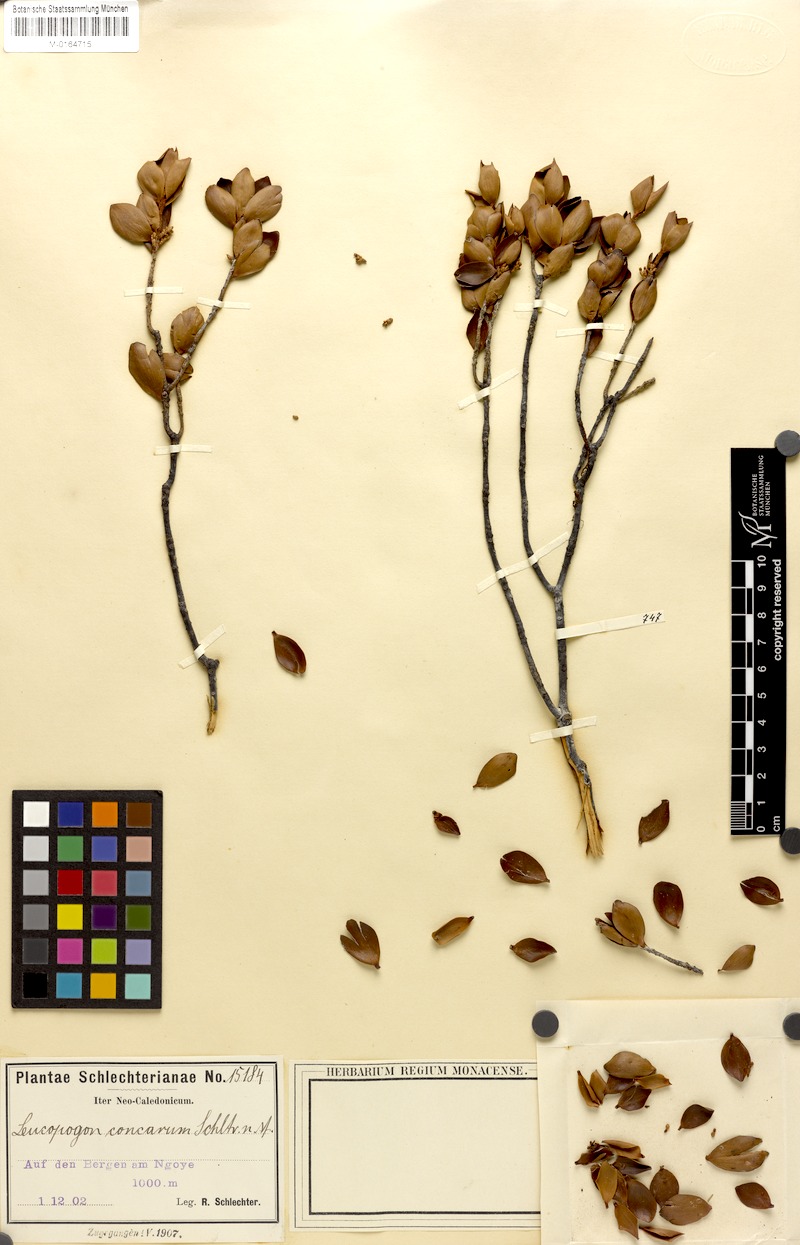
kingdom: Plantae
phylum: Tracheophyta
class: Magnoliopsida
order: Ericales
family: Ericaceae
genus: Styphelia
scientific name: Styphelia cymbulae
